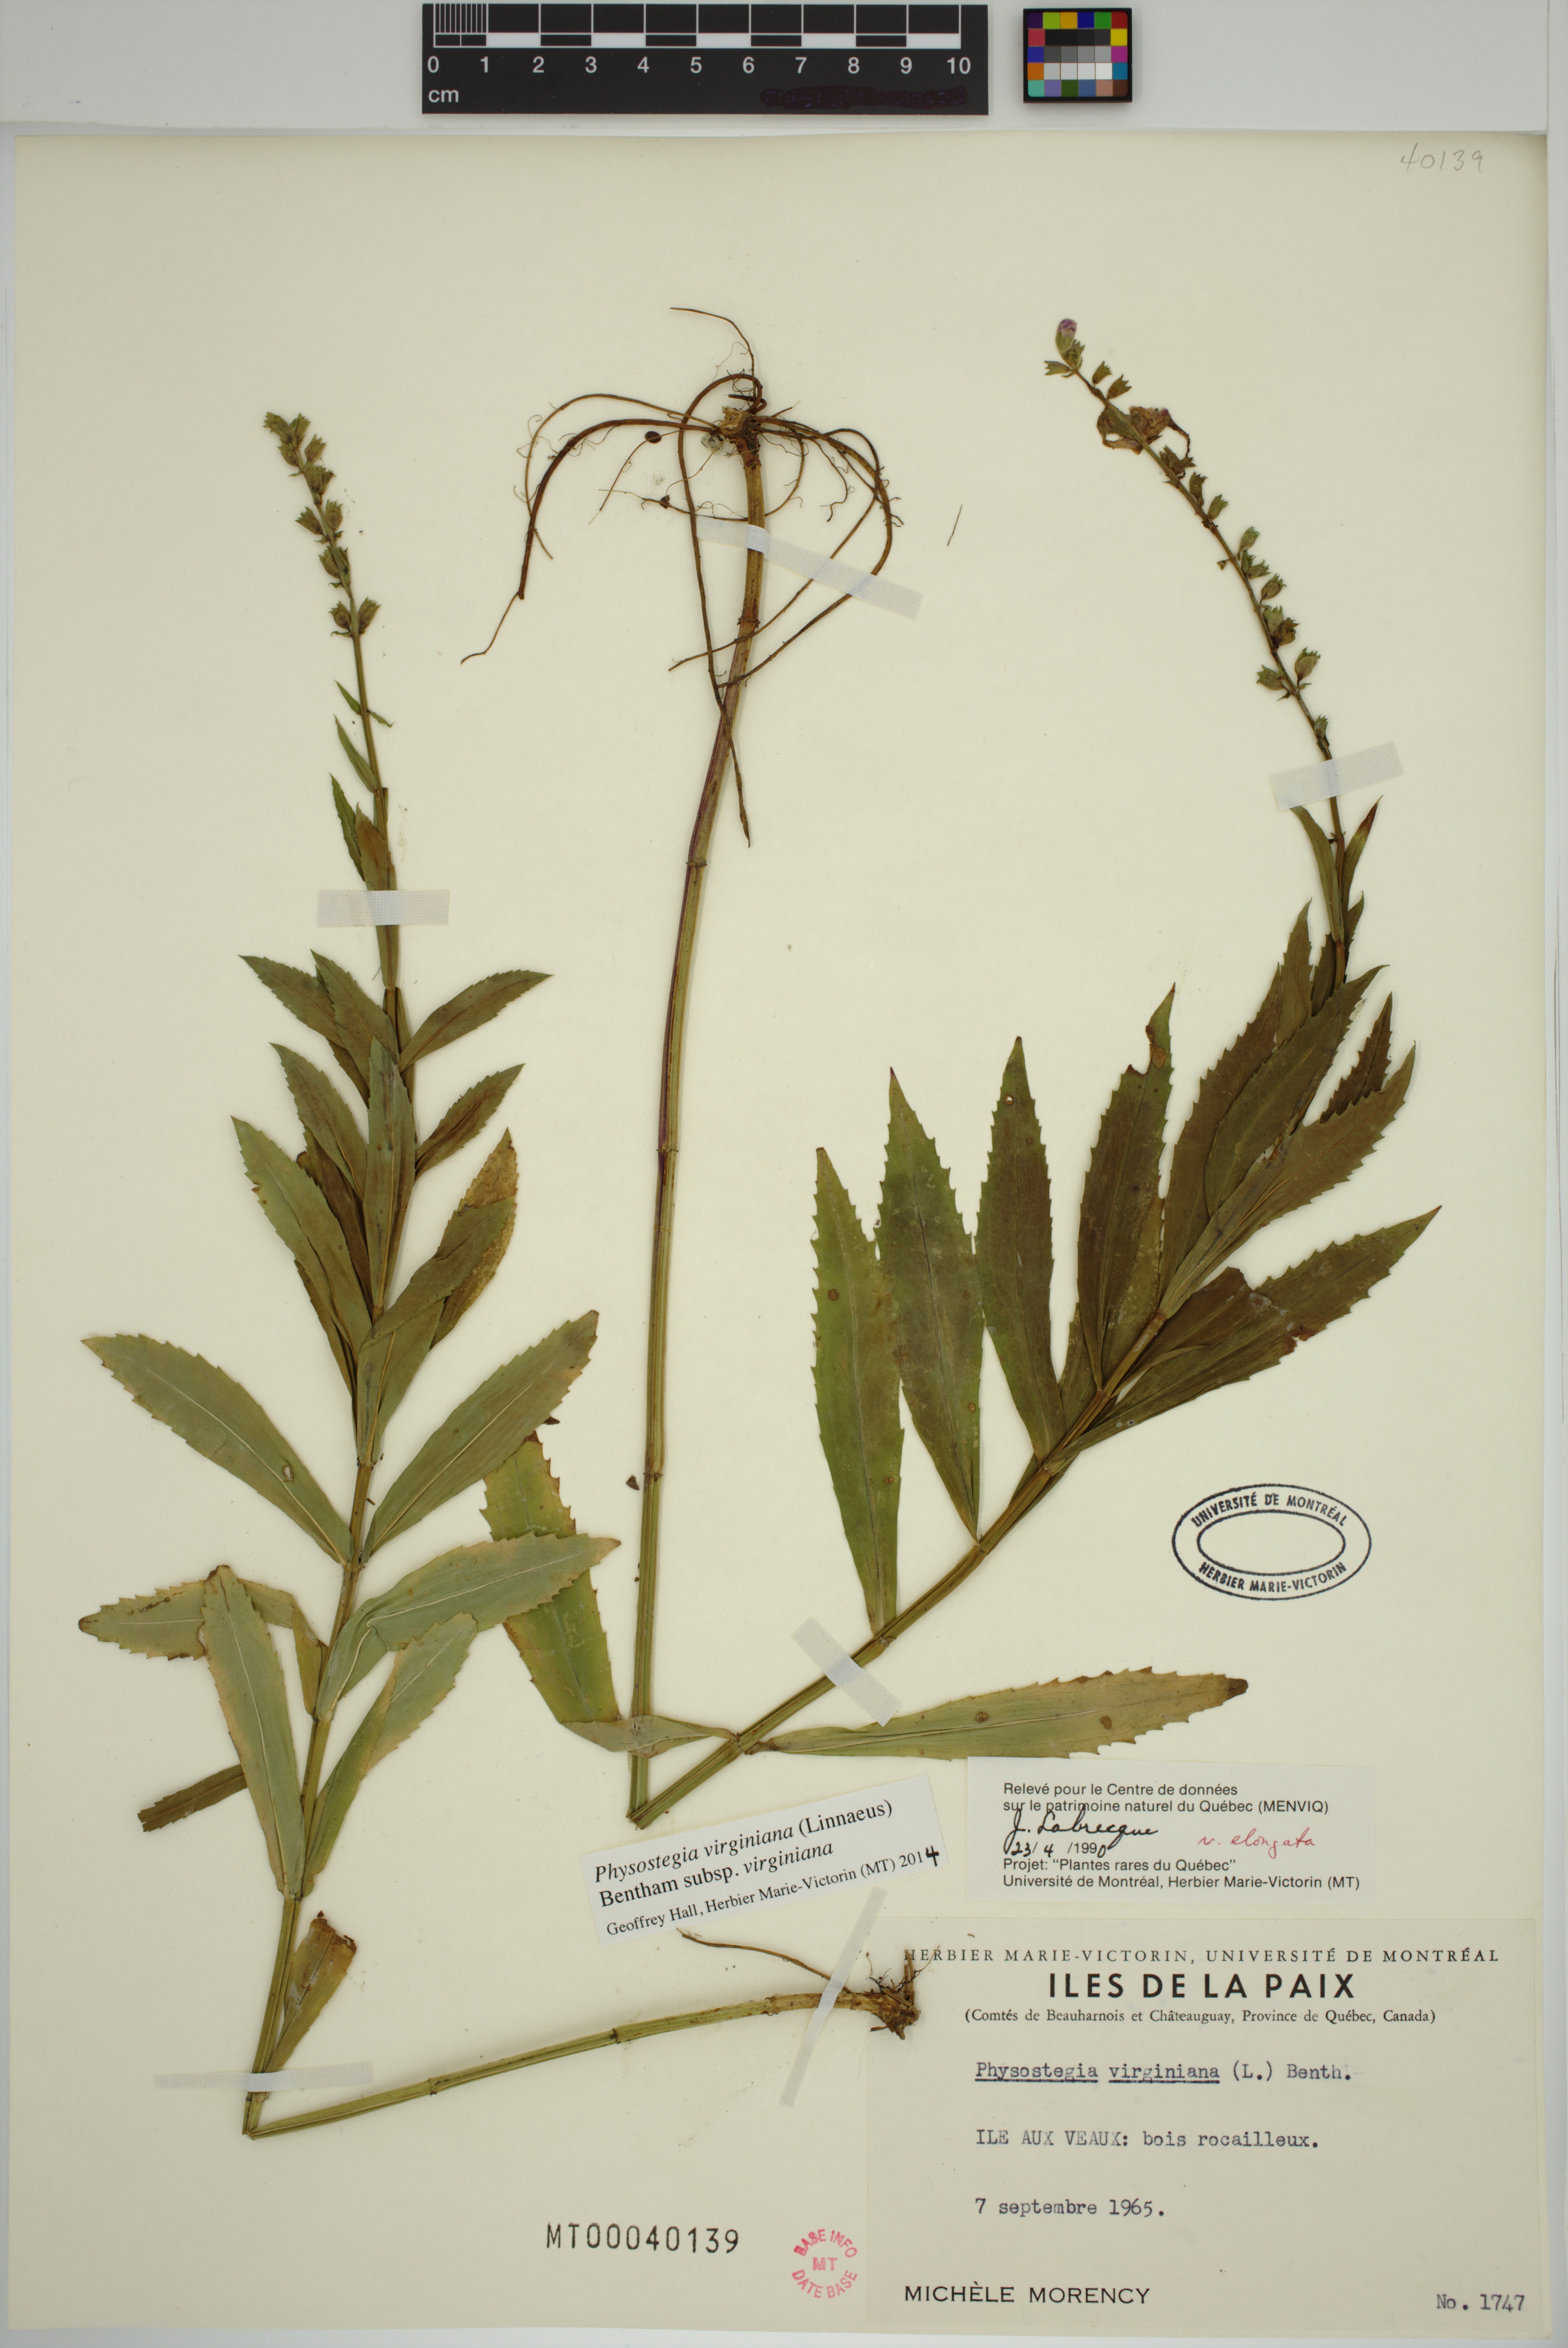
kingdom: Plantae
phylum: Tracheophyta
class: Magnoliopsida
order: Lamiales
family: Lamiaceae
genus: Physostegia
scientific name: Physostegia virginiana
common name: Obedient-plant
